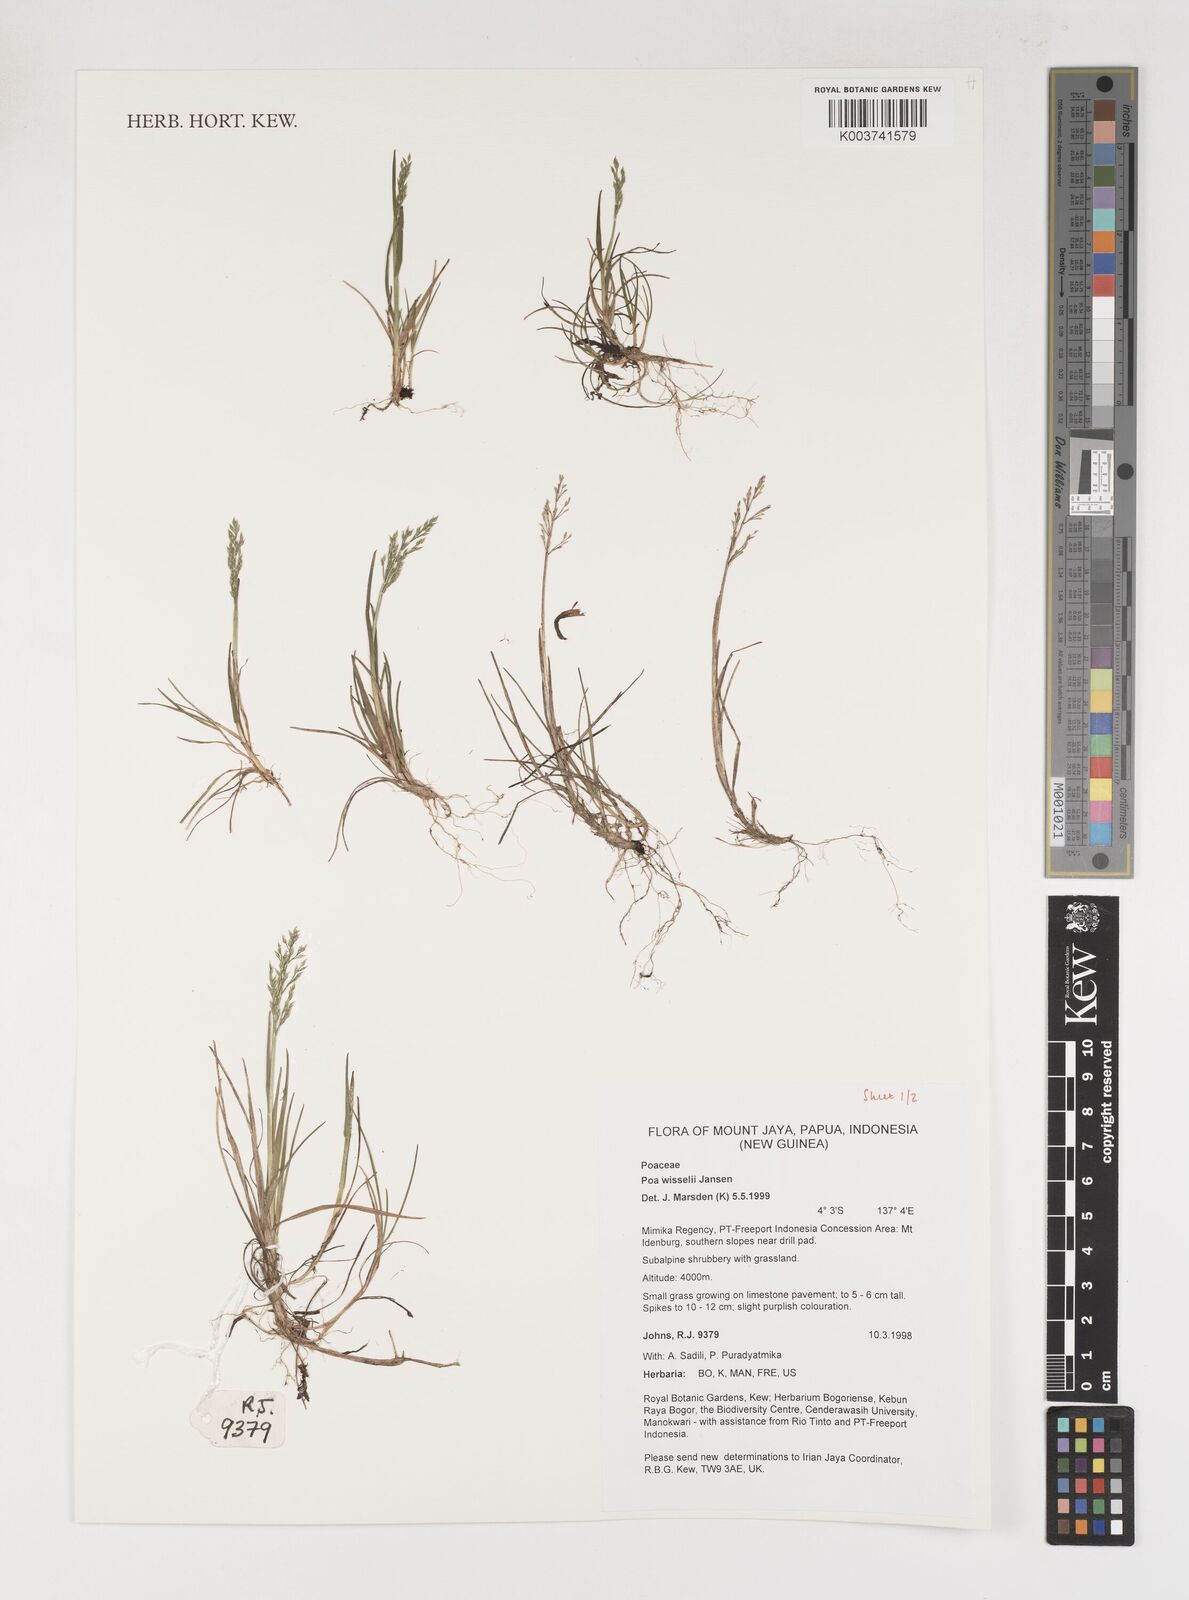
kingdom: Plantae
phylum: Tracheophyta
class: Liliopsida
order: Poales
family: Poaceae
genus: Poa
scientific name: Poa wisselii
